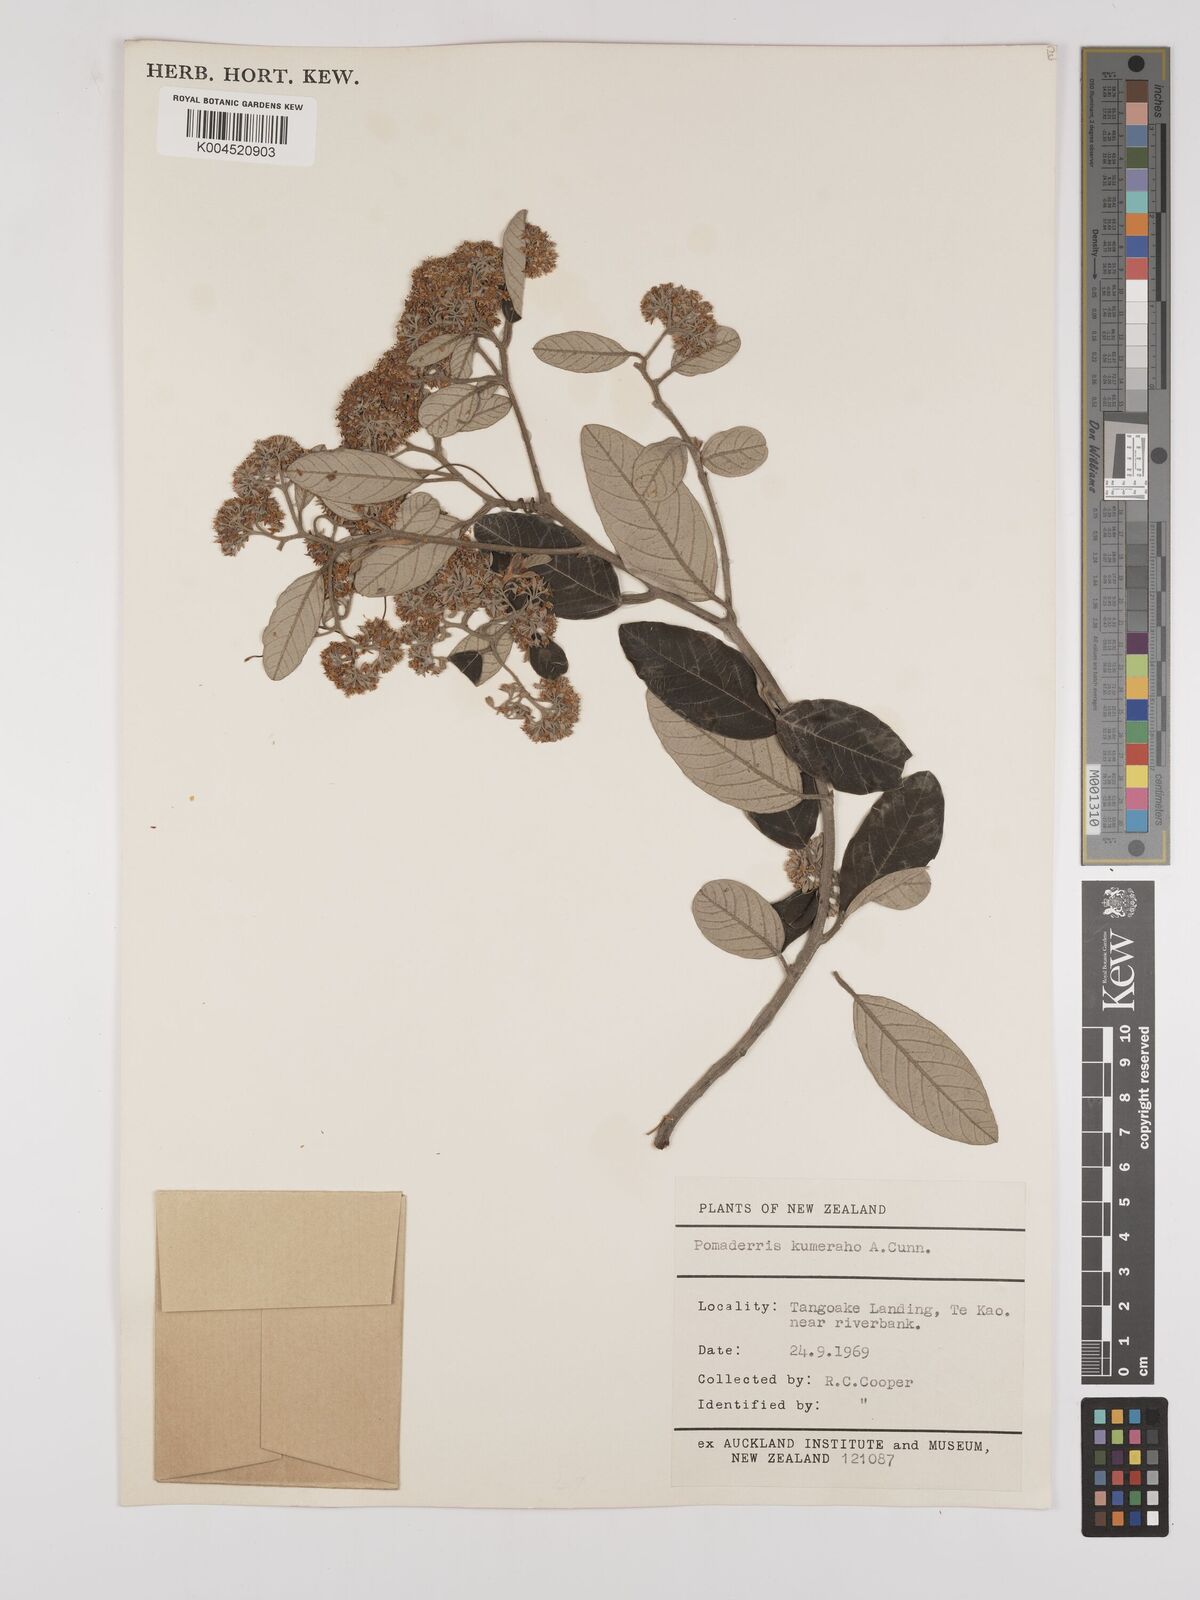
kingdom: Plantae
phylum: Tracheophyta
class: Magnoliopsida
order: Rosales
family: Rhamnaceae
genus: Pomaderris
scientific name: Pomaderris kumeraho
